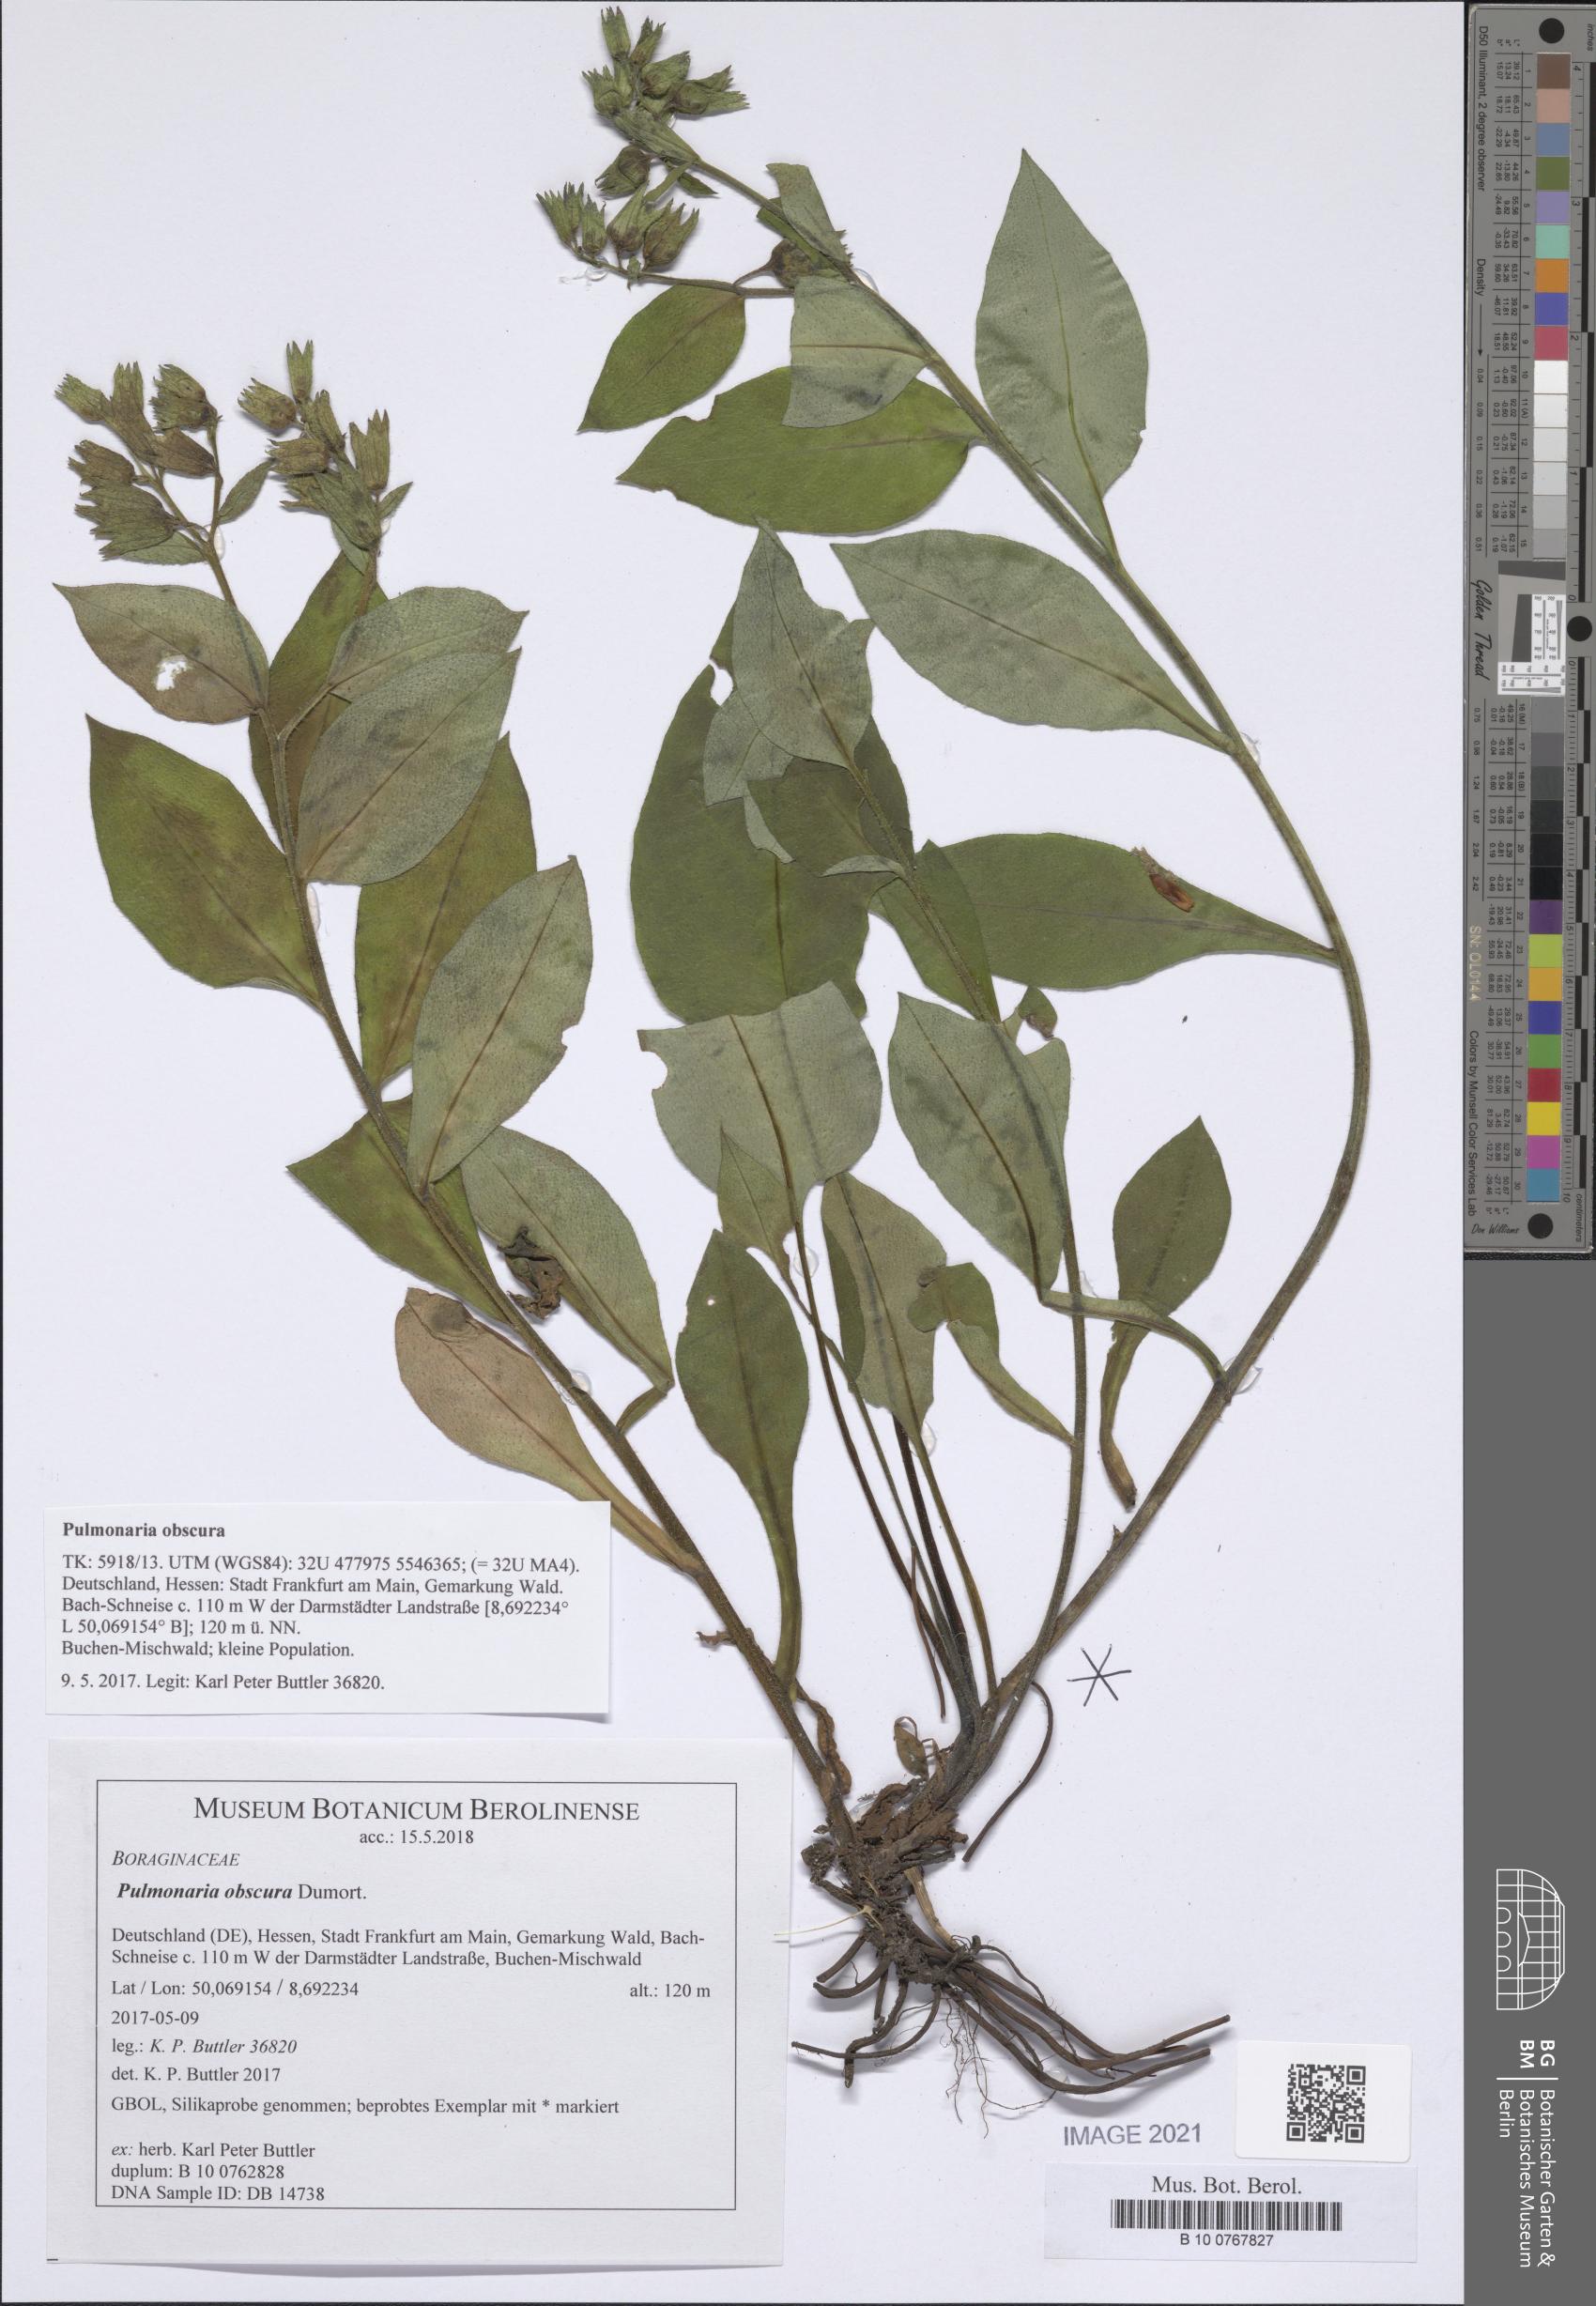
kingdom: Plantae
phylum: Tracheophyta
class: Magnoliopsida
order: Boraginales
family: Boraginaceae
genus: Pulmonaria
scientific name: Pulmonaria obscura
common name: Suffolk lungwort
